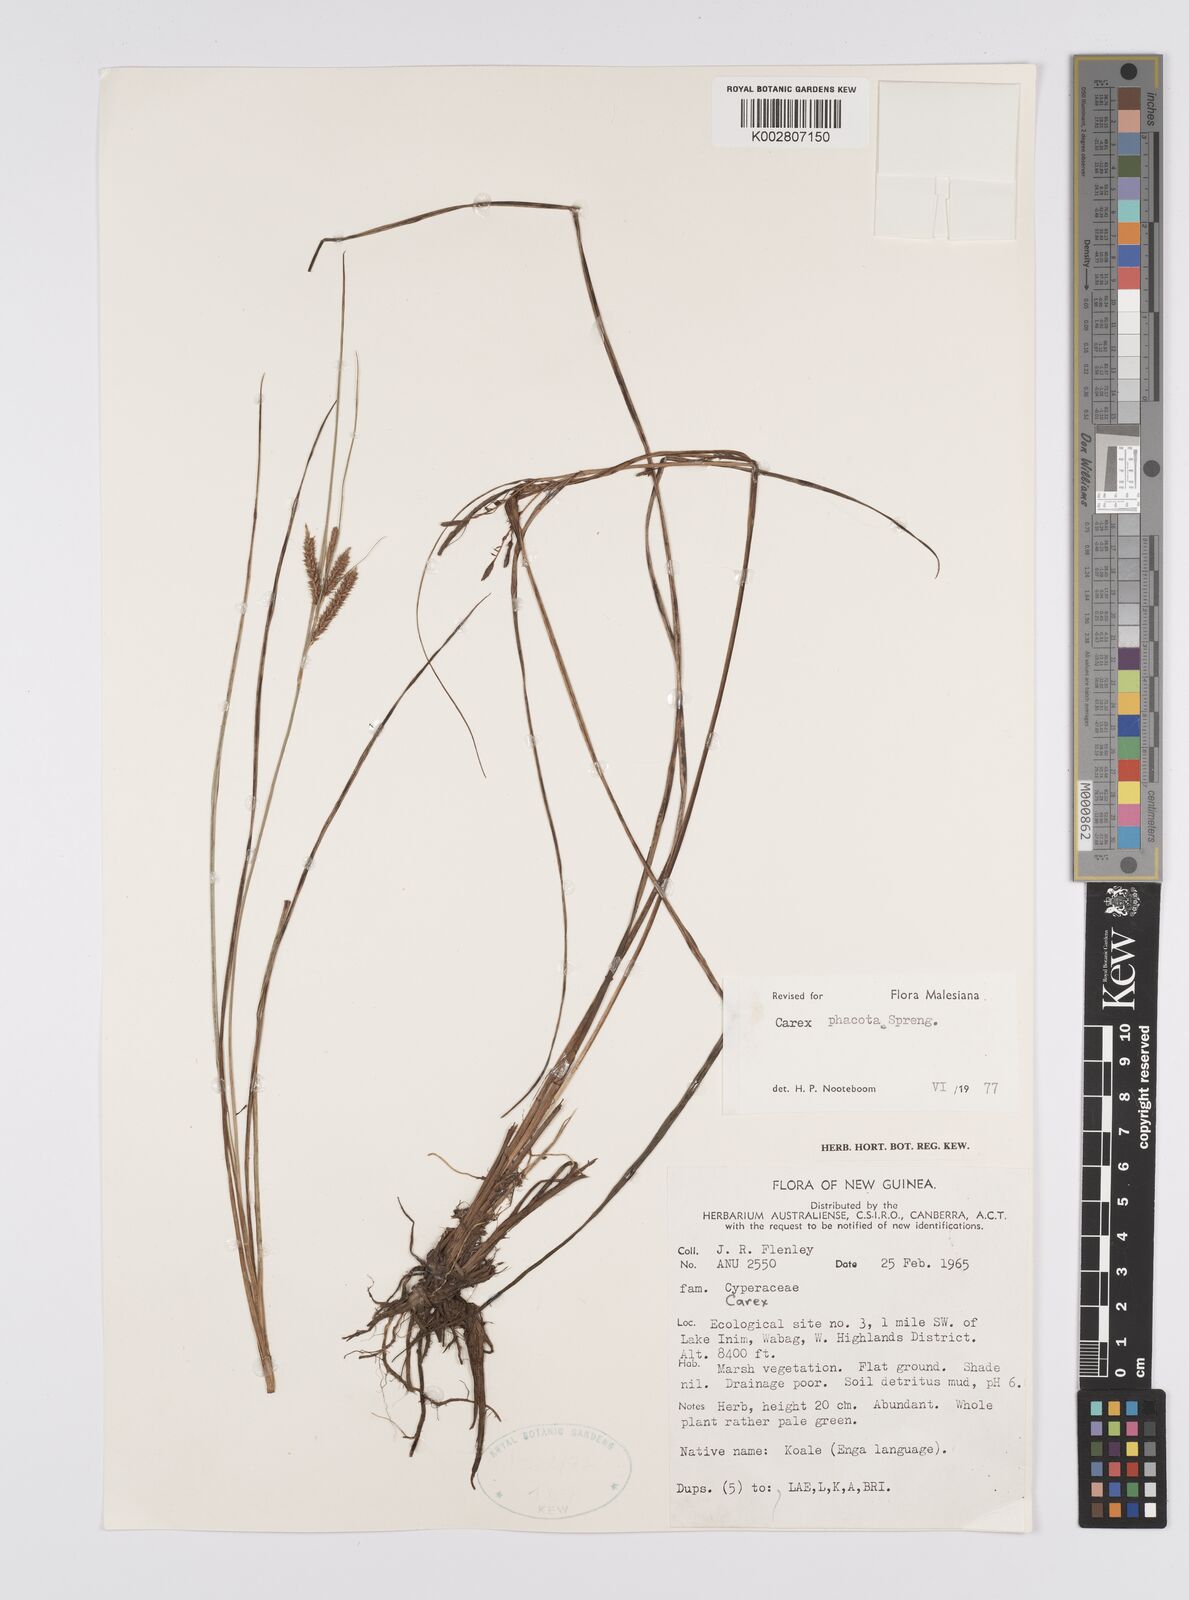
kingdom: Plantae
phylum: Tracheophyta
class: Liliopsida
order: Poales
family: Cyperaceae
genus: Carex
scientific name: Carex phacota
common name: Lakeshore sedge
